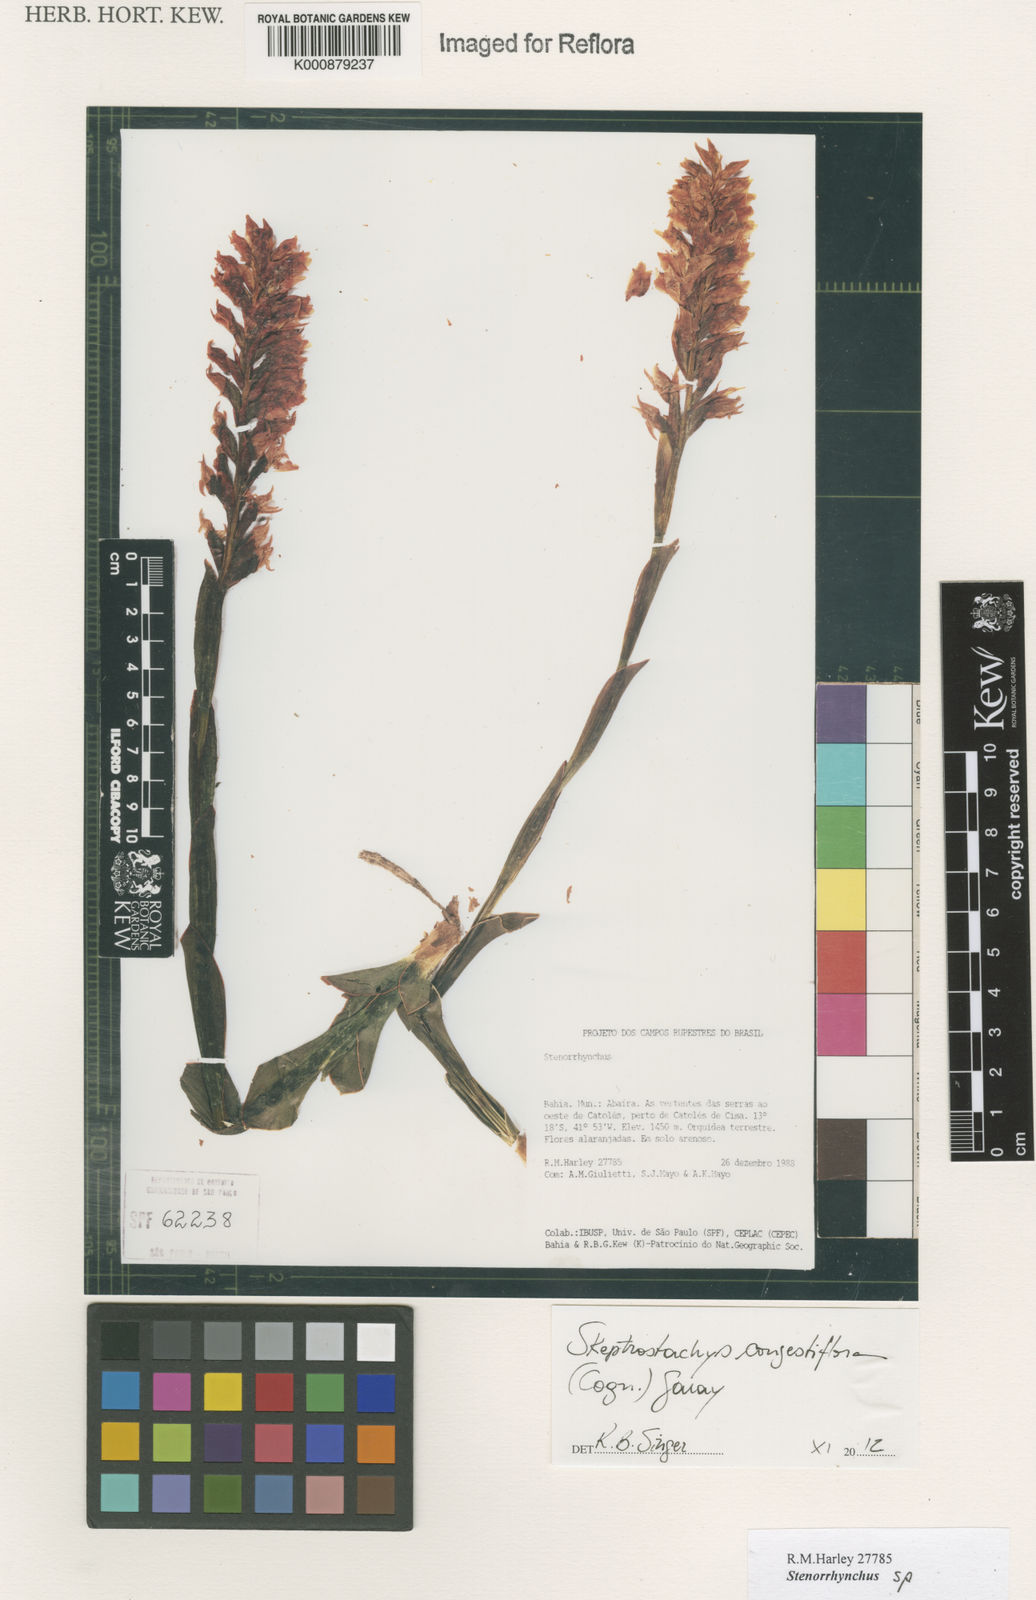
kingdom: Plantae
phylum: Tracheophyta
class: Liliopsida
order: Asparagales
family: Orchidaceae
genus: Skeptrostachys
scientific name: Skeptrostachys congestiflora
